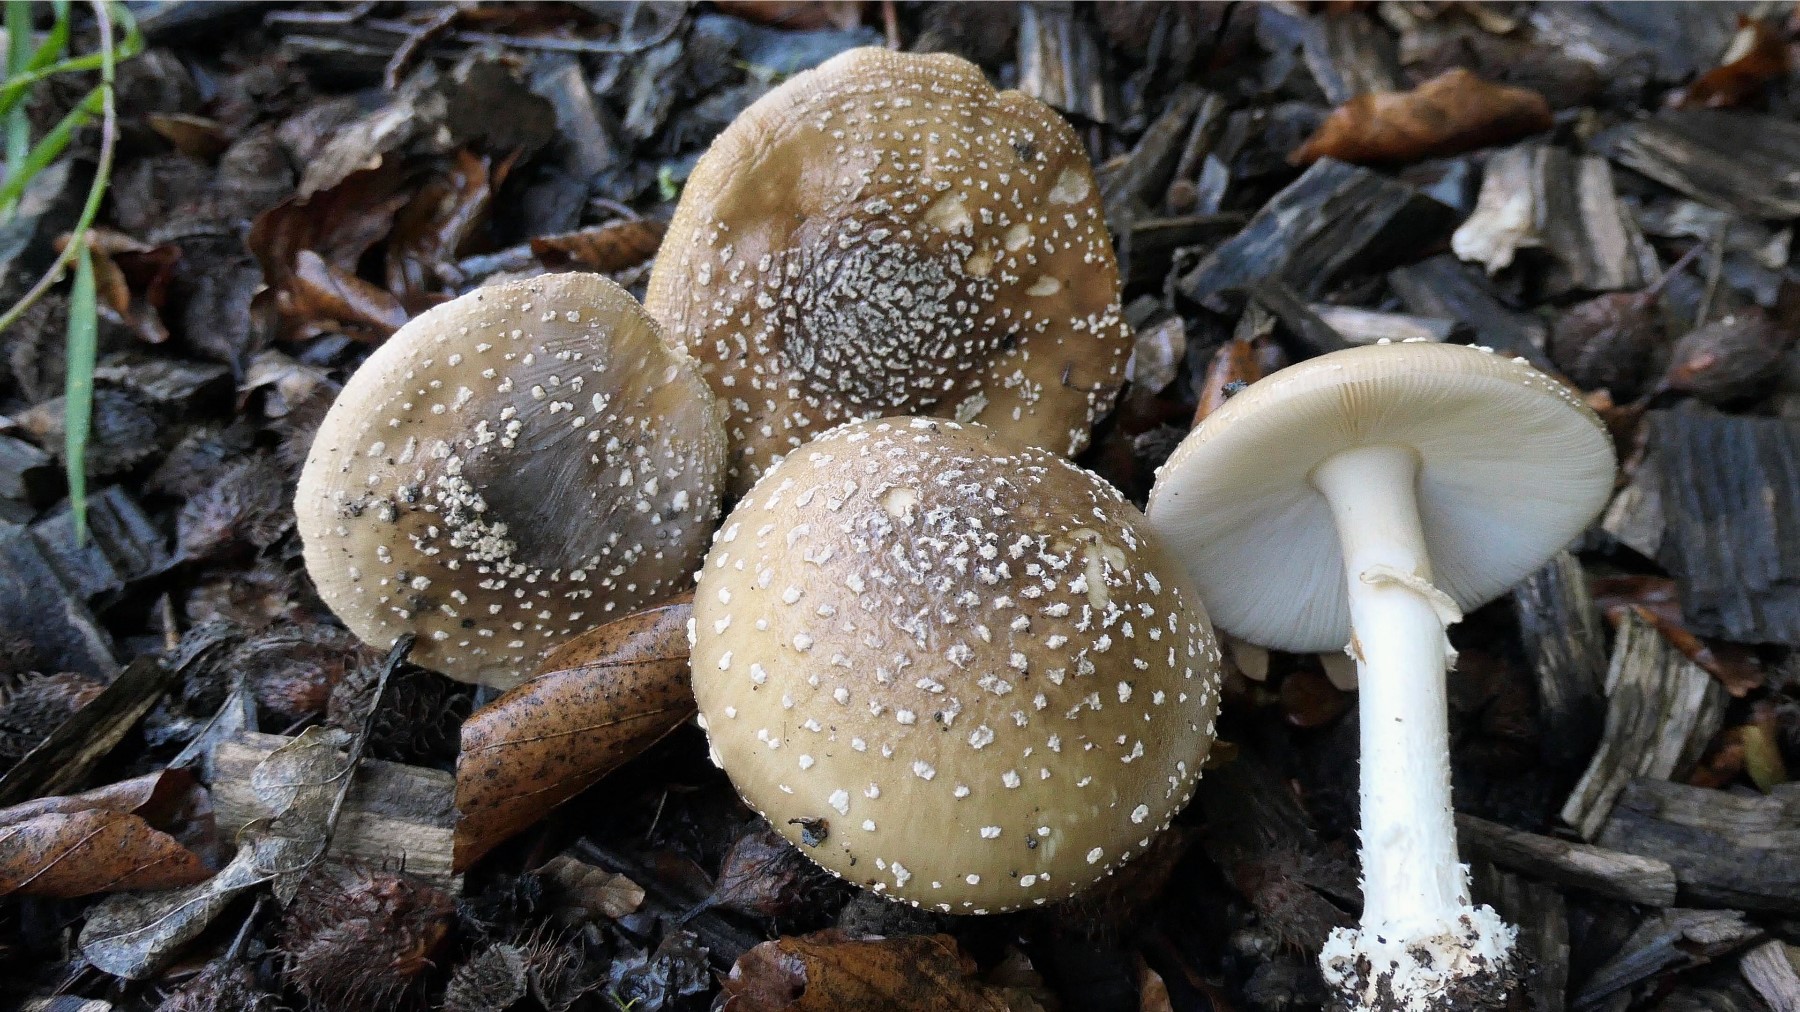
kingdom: Fungi
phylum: Basidiomycota
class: Agaricomycetes
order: Agaricales
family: Amanitaceae
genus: Amanita
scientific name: Amanita pantherina
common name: panter-fluesvamp
